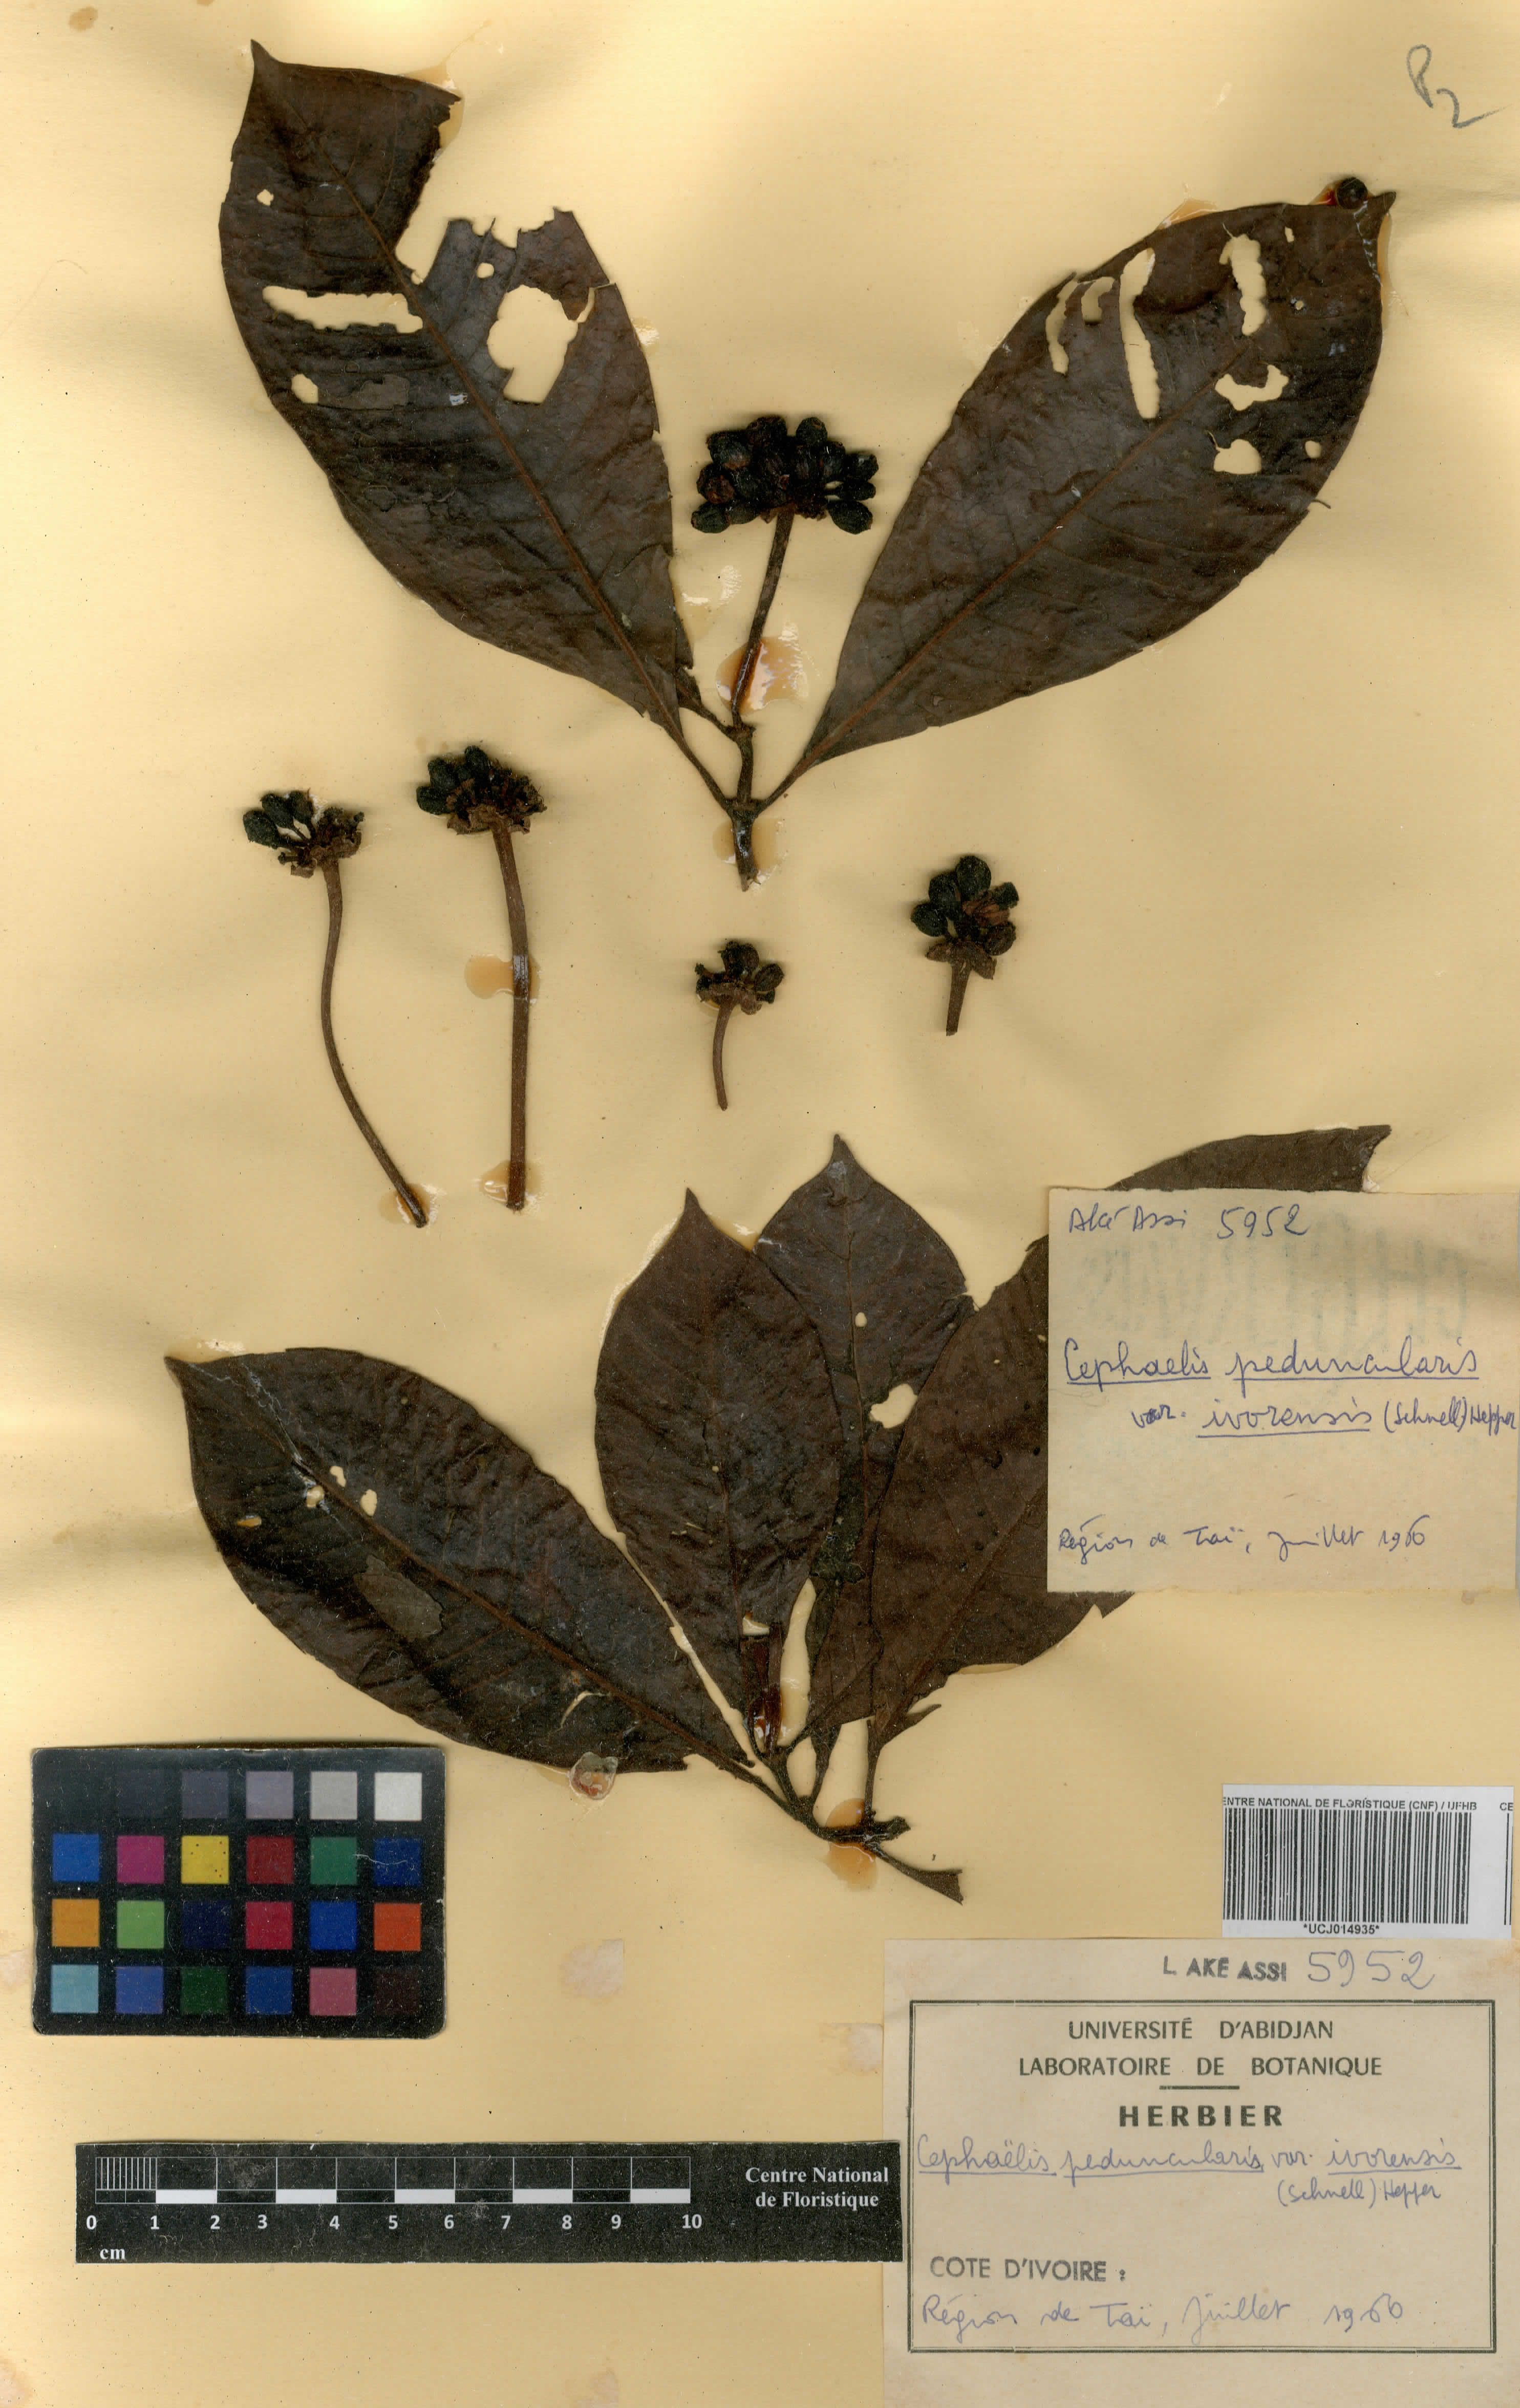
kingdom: Plantae
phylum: Tracheophyta
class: Magnoliopsida
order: Gentianales
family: Rubiaceae
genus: Psychotria
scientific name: Psychotria peduncularis
